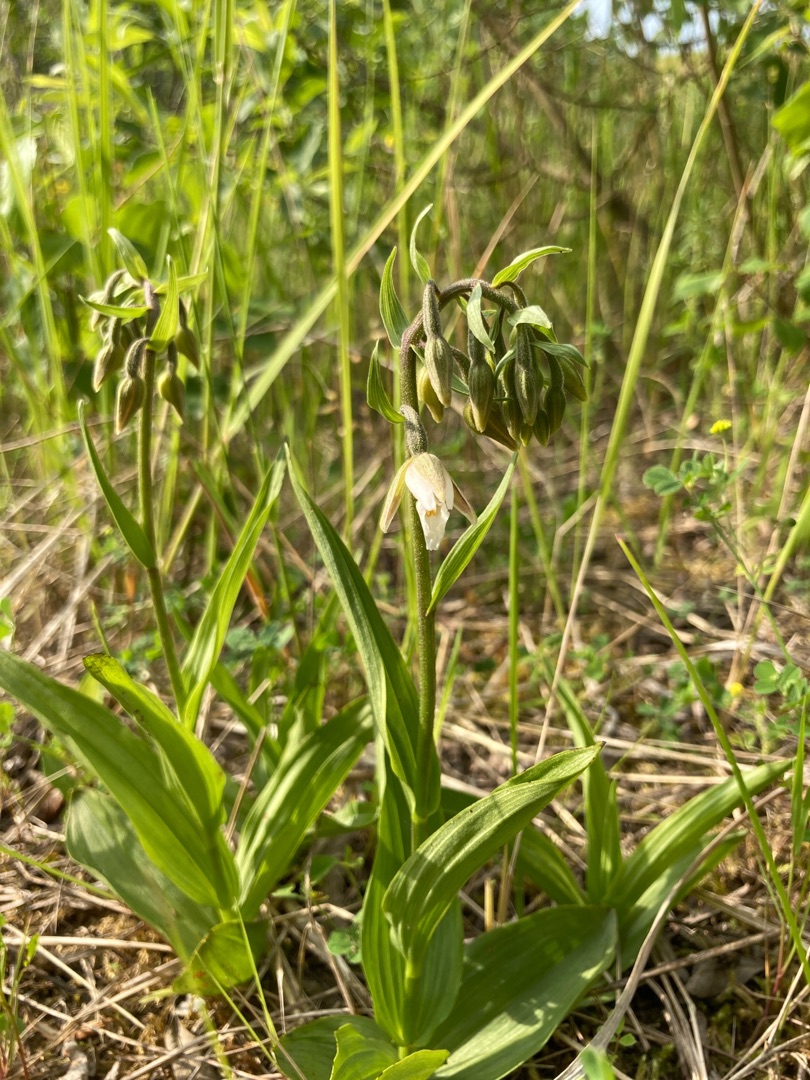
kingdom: Plantae
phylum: Tracheophyta
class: Liliopsida
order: Asparagales
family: Orchidaceae
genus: Epipactis
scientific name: Epipactis palustris
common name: Sump-hullæbe
